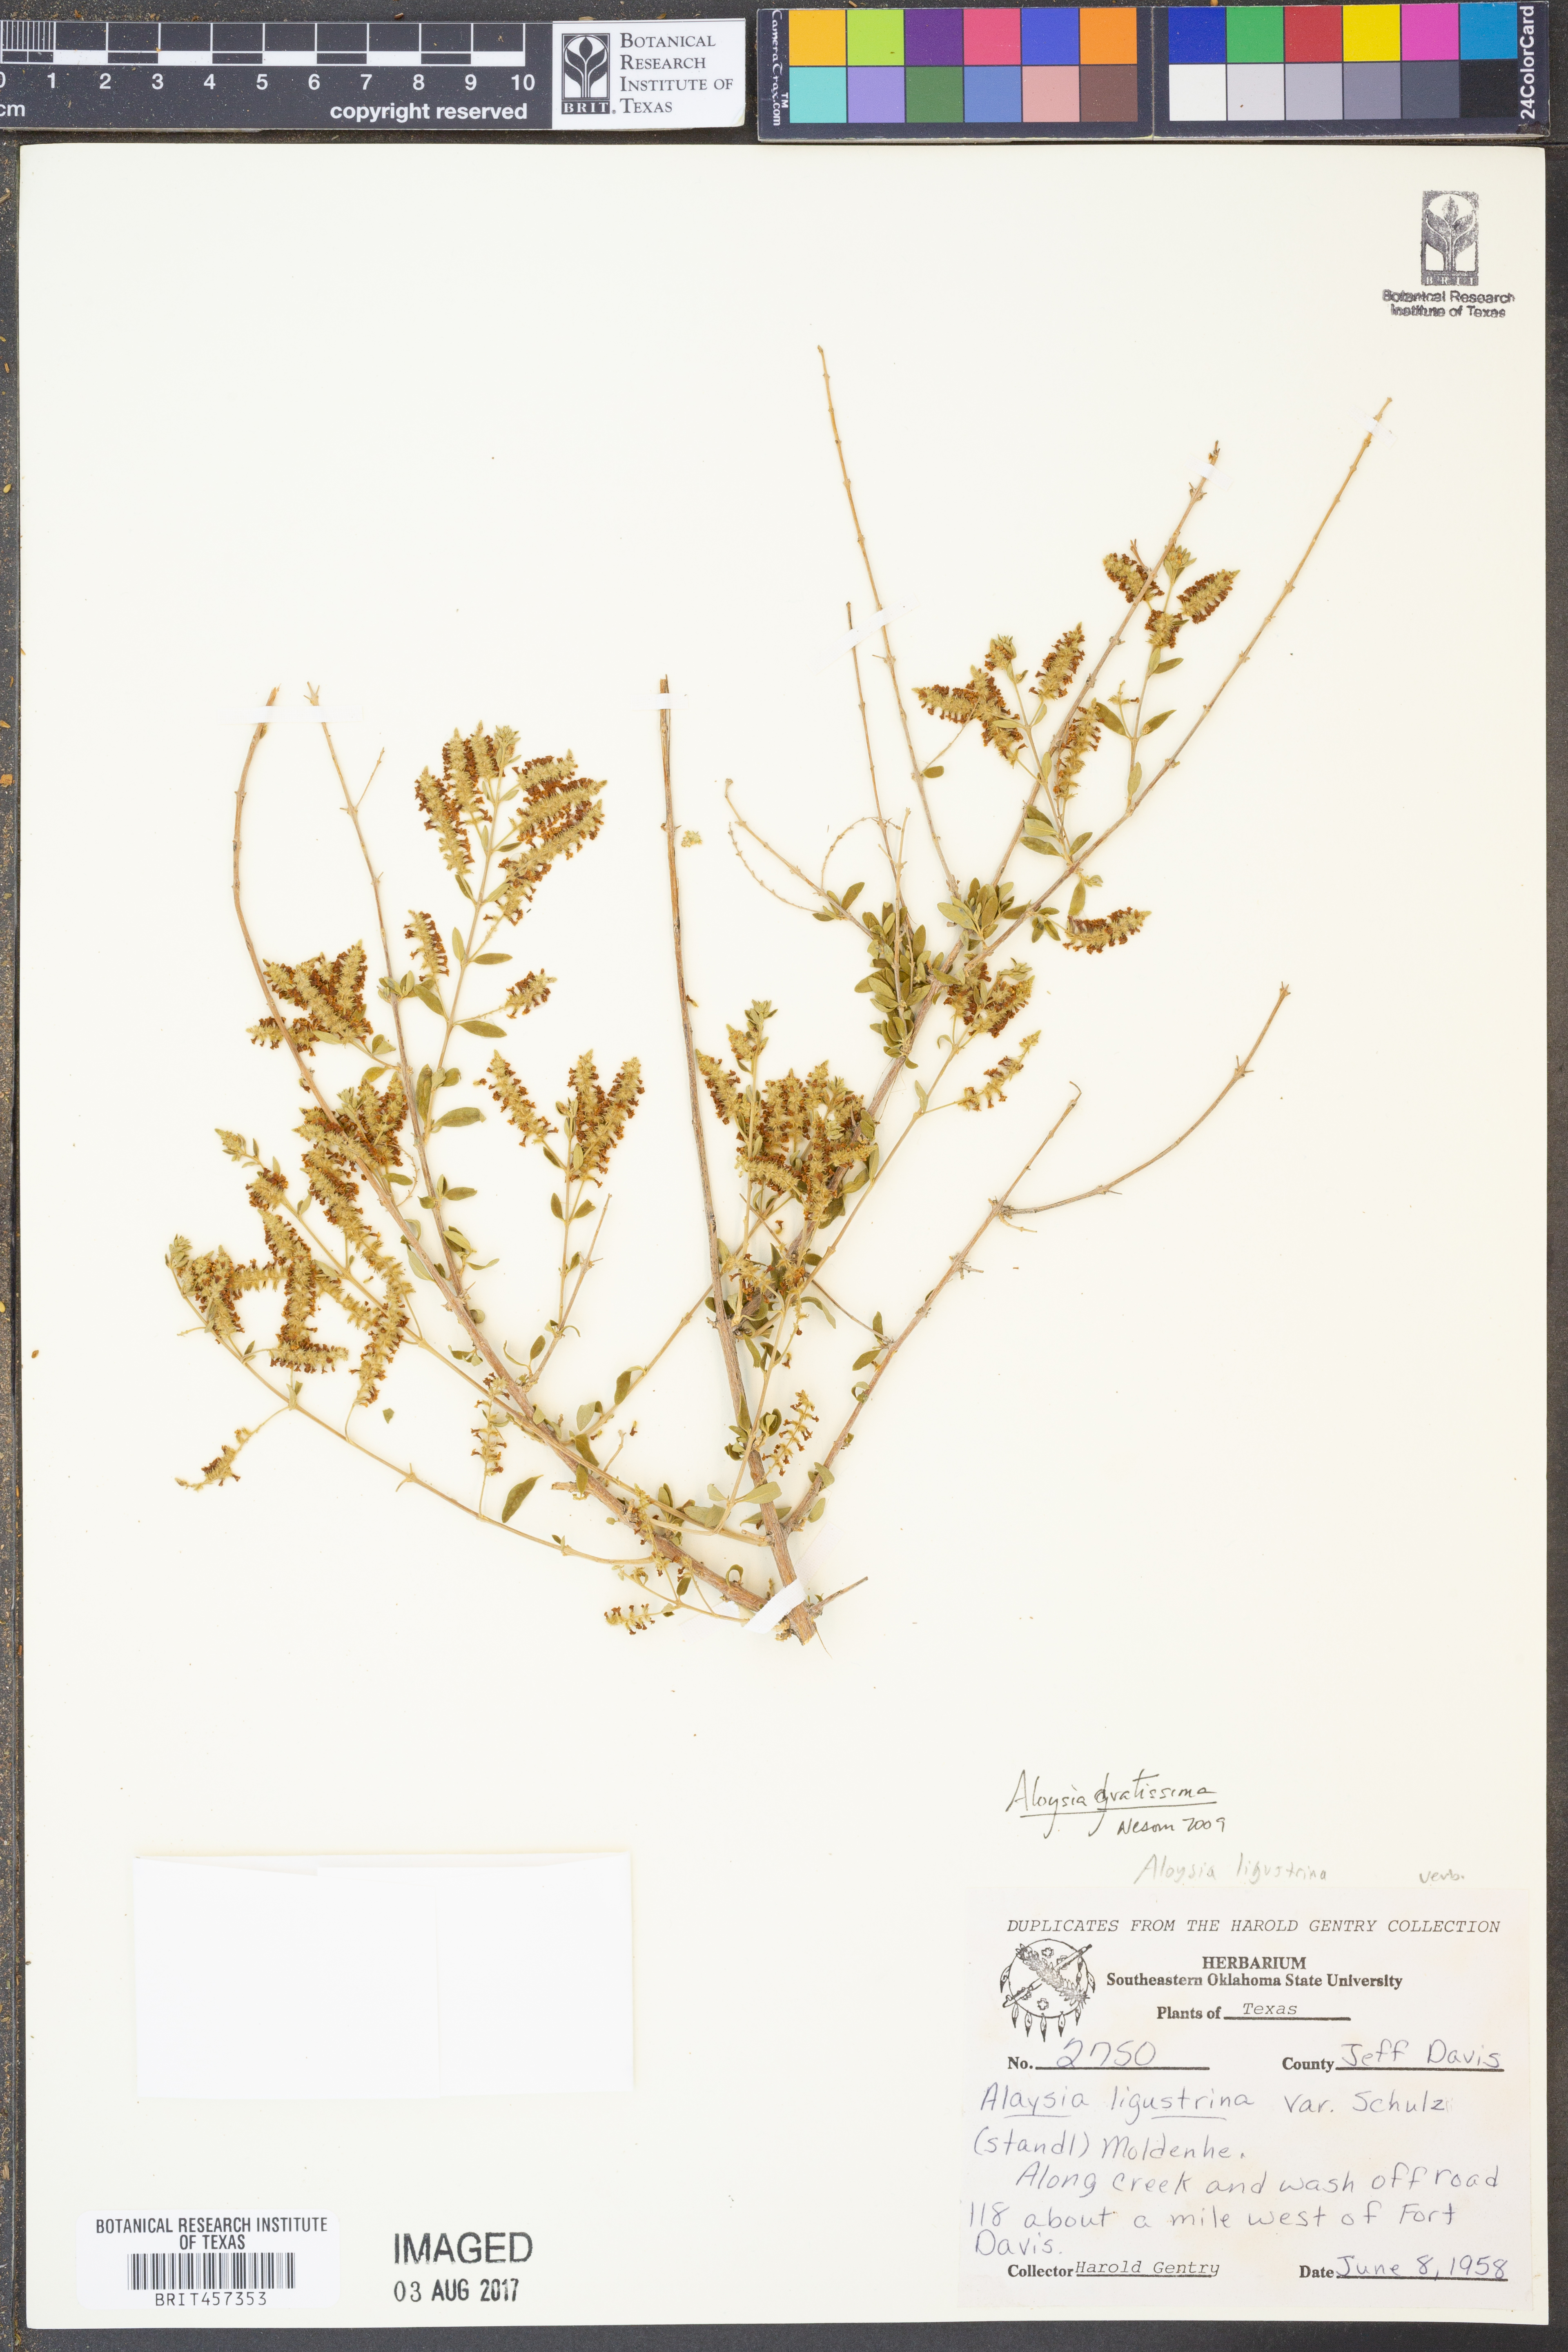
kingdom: Plantae
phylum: Tracheophyta
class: Magnoliopsida
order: Lamiales
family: Verbenaceae
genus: Aloysia
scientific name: Aloysia gratissima
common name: Common bee-brush
